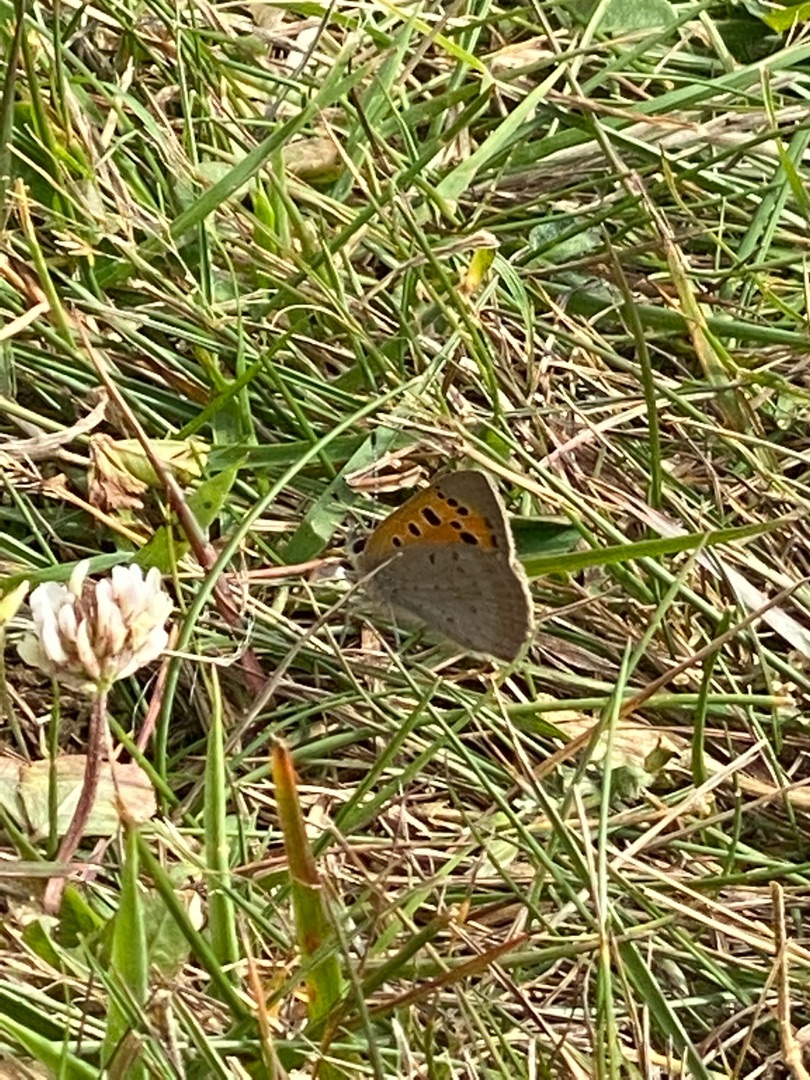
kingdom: Animalia
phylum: Arthropoda
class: Insecta
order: Lepidoptera
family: Lycaenidae
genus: Lycaena
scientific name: Lycaena phlaeas
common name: Lille ildfugl
